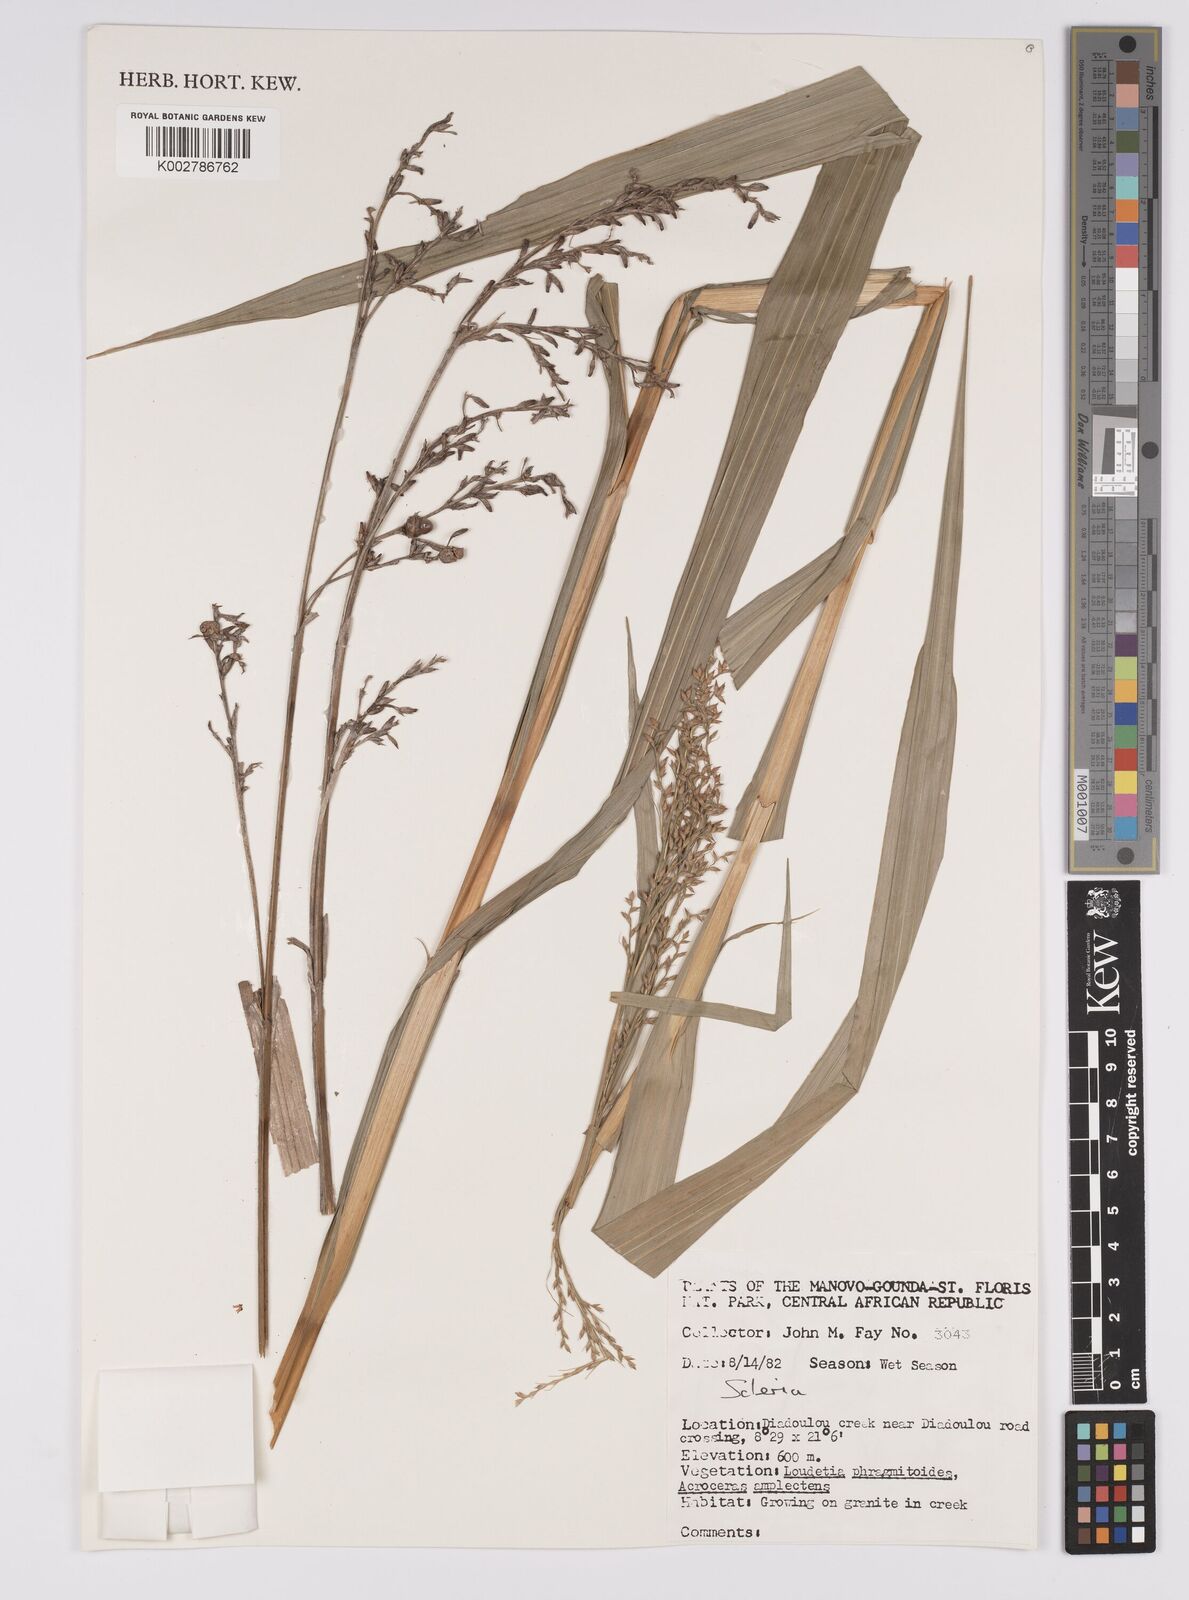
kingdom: Plantae
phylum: Tracheophyta
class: Liliopsida
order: Poales
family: Cyperaceae
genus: Scleria
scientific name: Scleria
